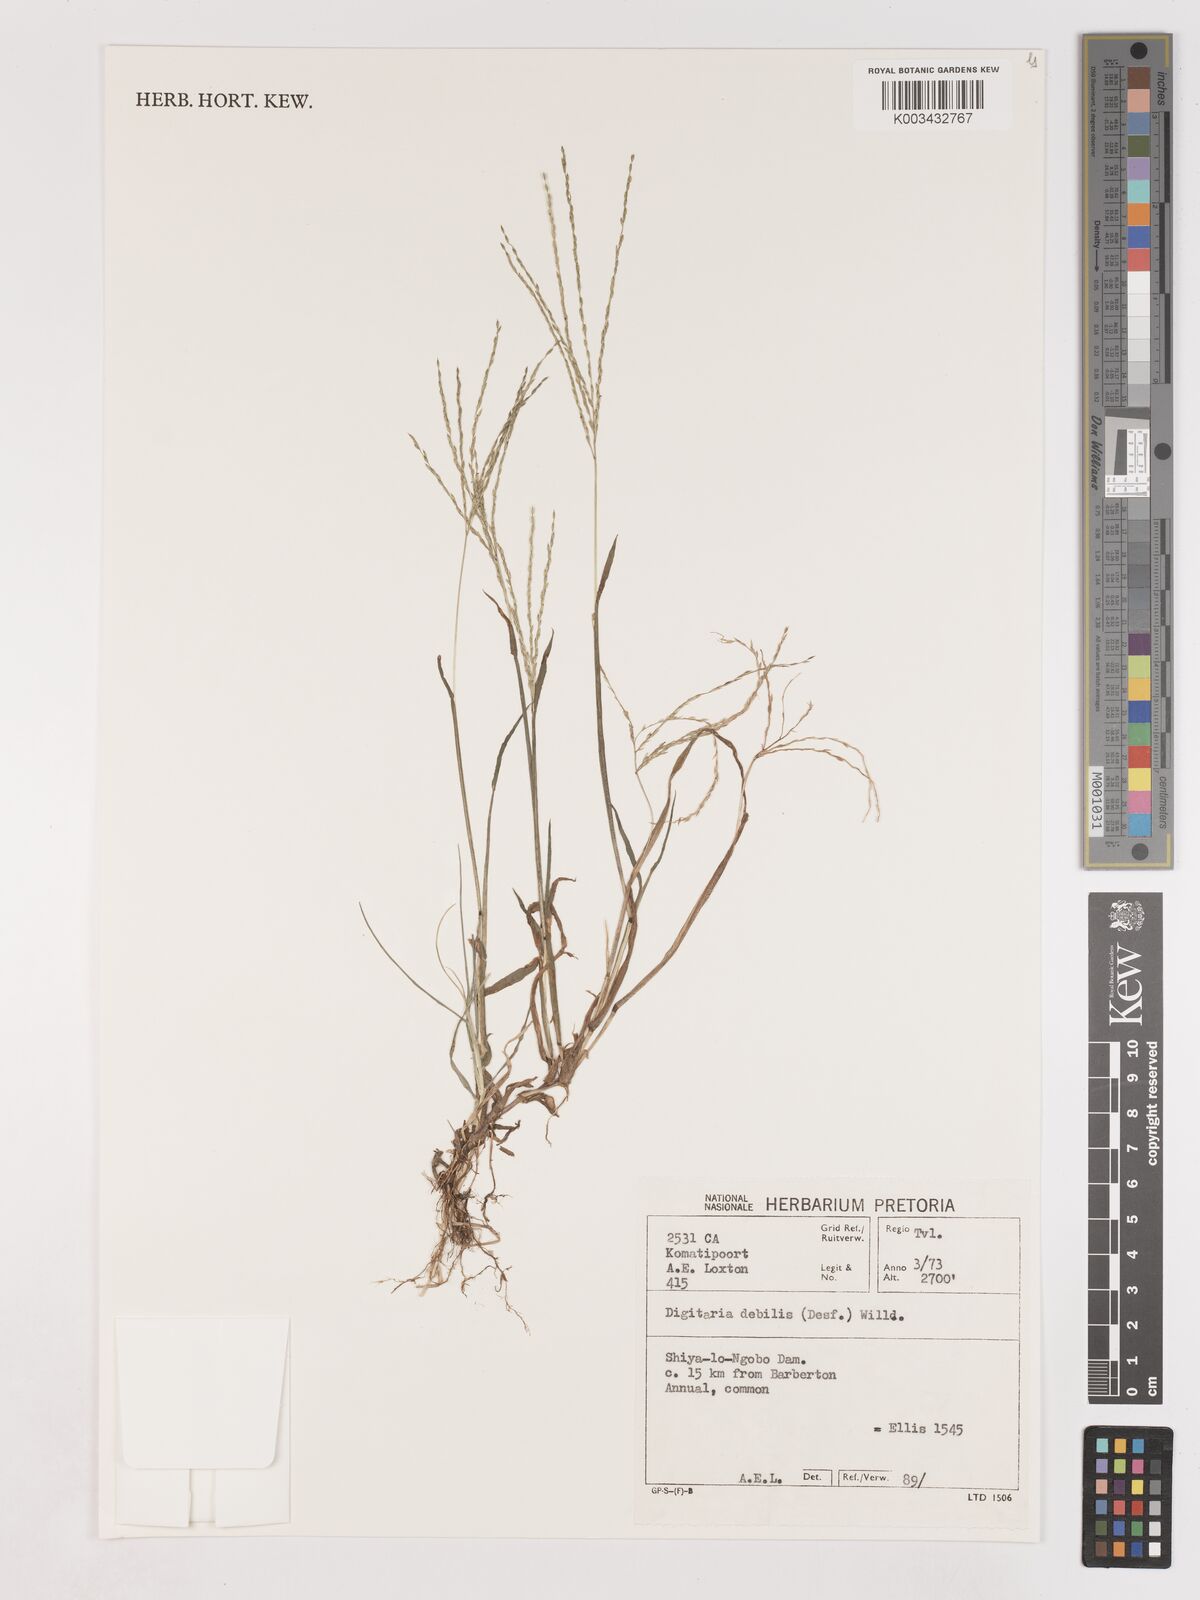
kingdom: Plantae
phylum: Tracheophyta
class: Liliopsida
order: Poales
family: Poaceae
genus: Digitaria
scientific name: Digitaria debilis
